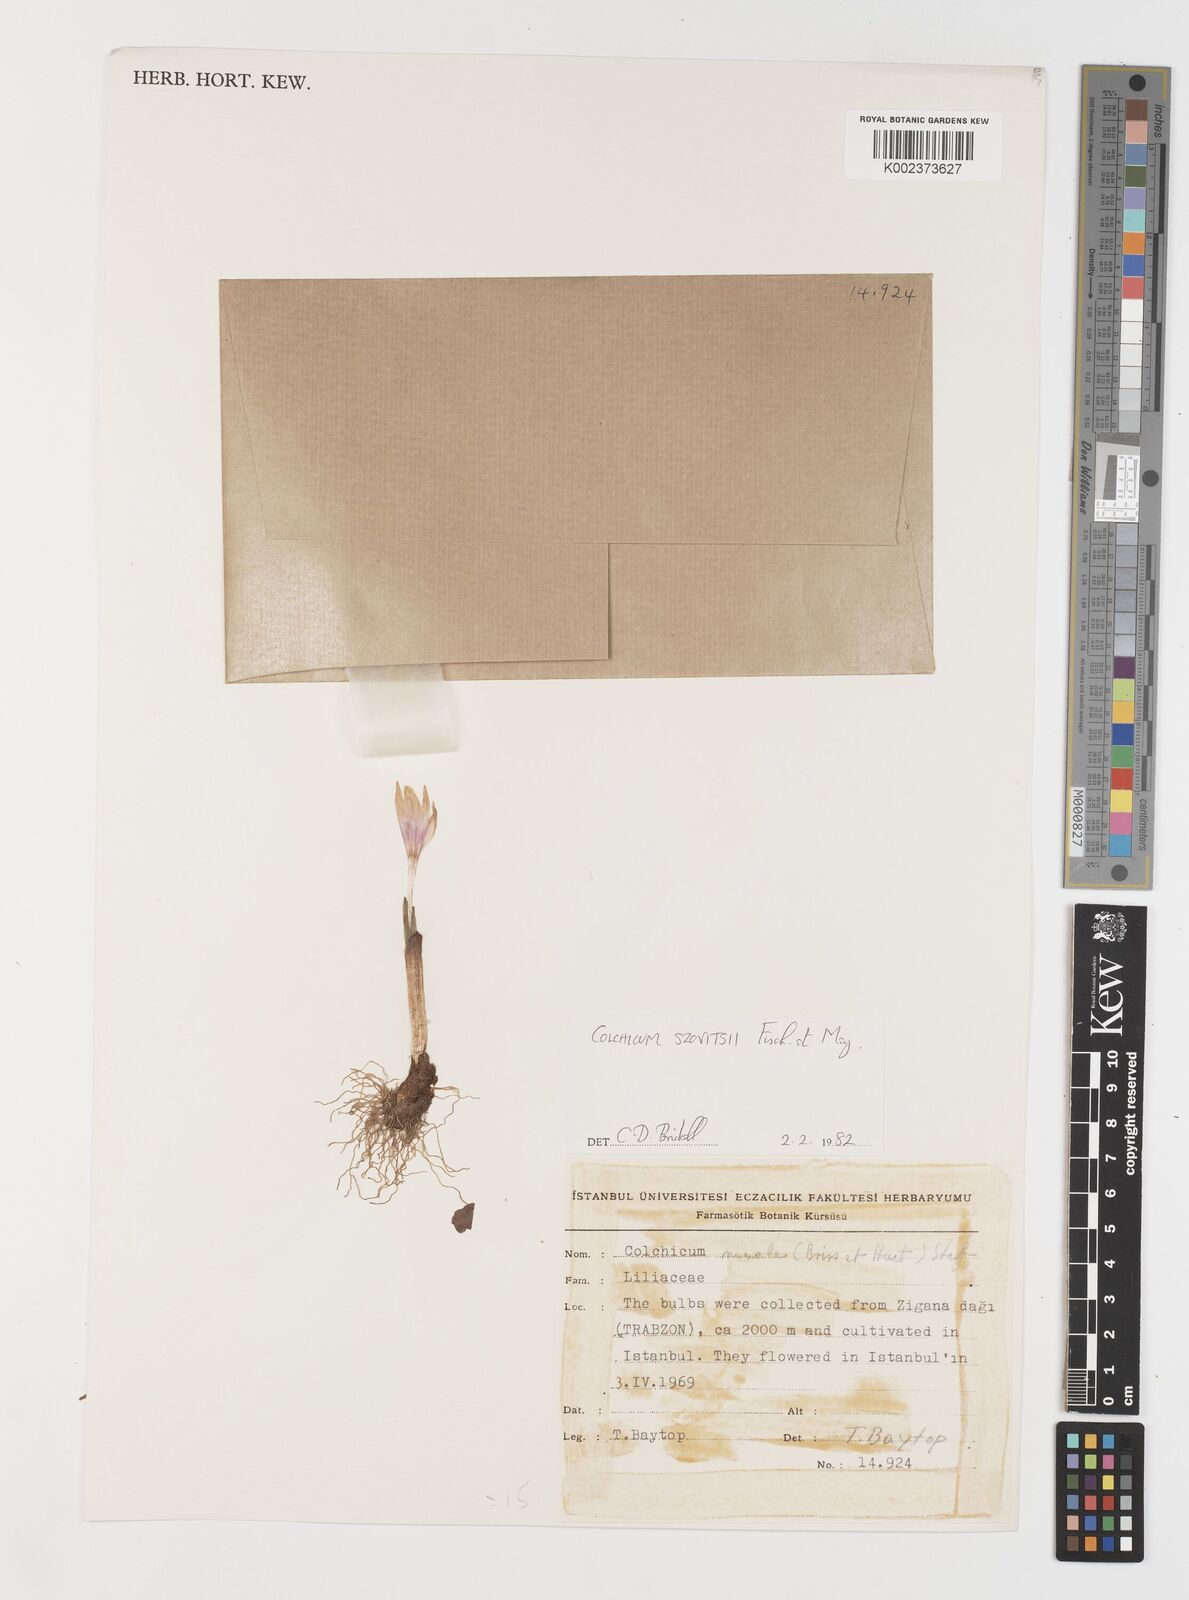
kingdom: Plantae
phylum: Tracheophyta
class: Liliopsida
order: Liliales
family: Colchicaceae
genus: Colchicum
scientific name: Colchicum szovitsii
